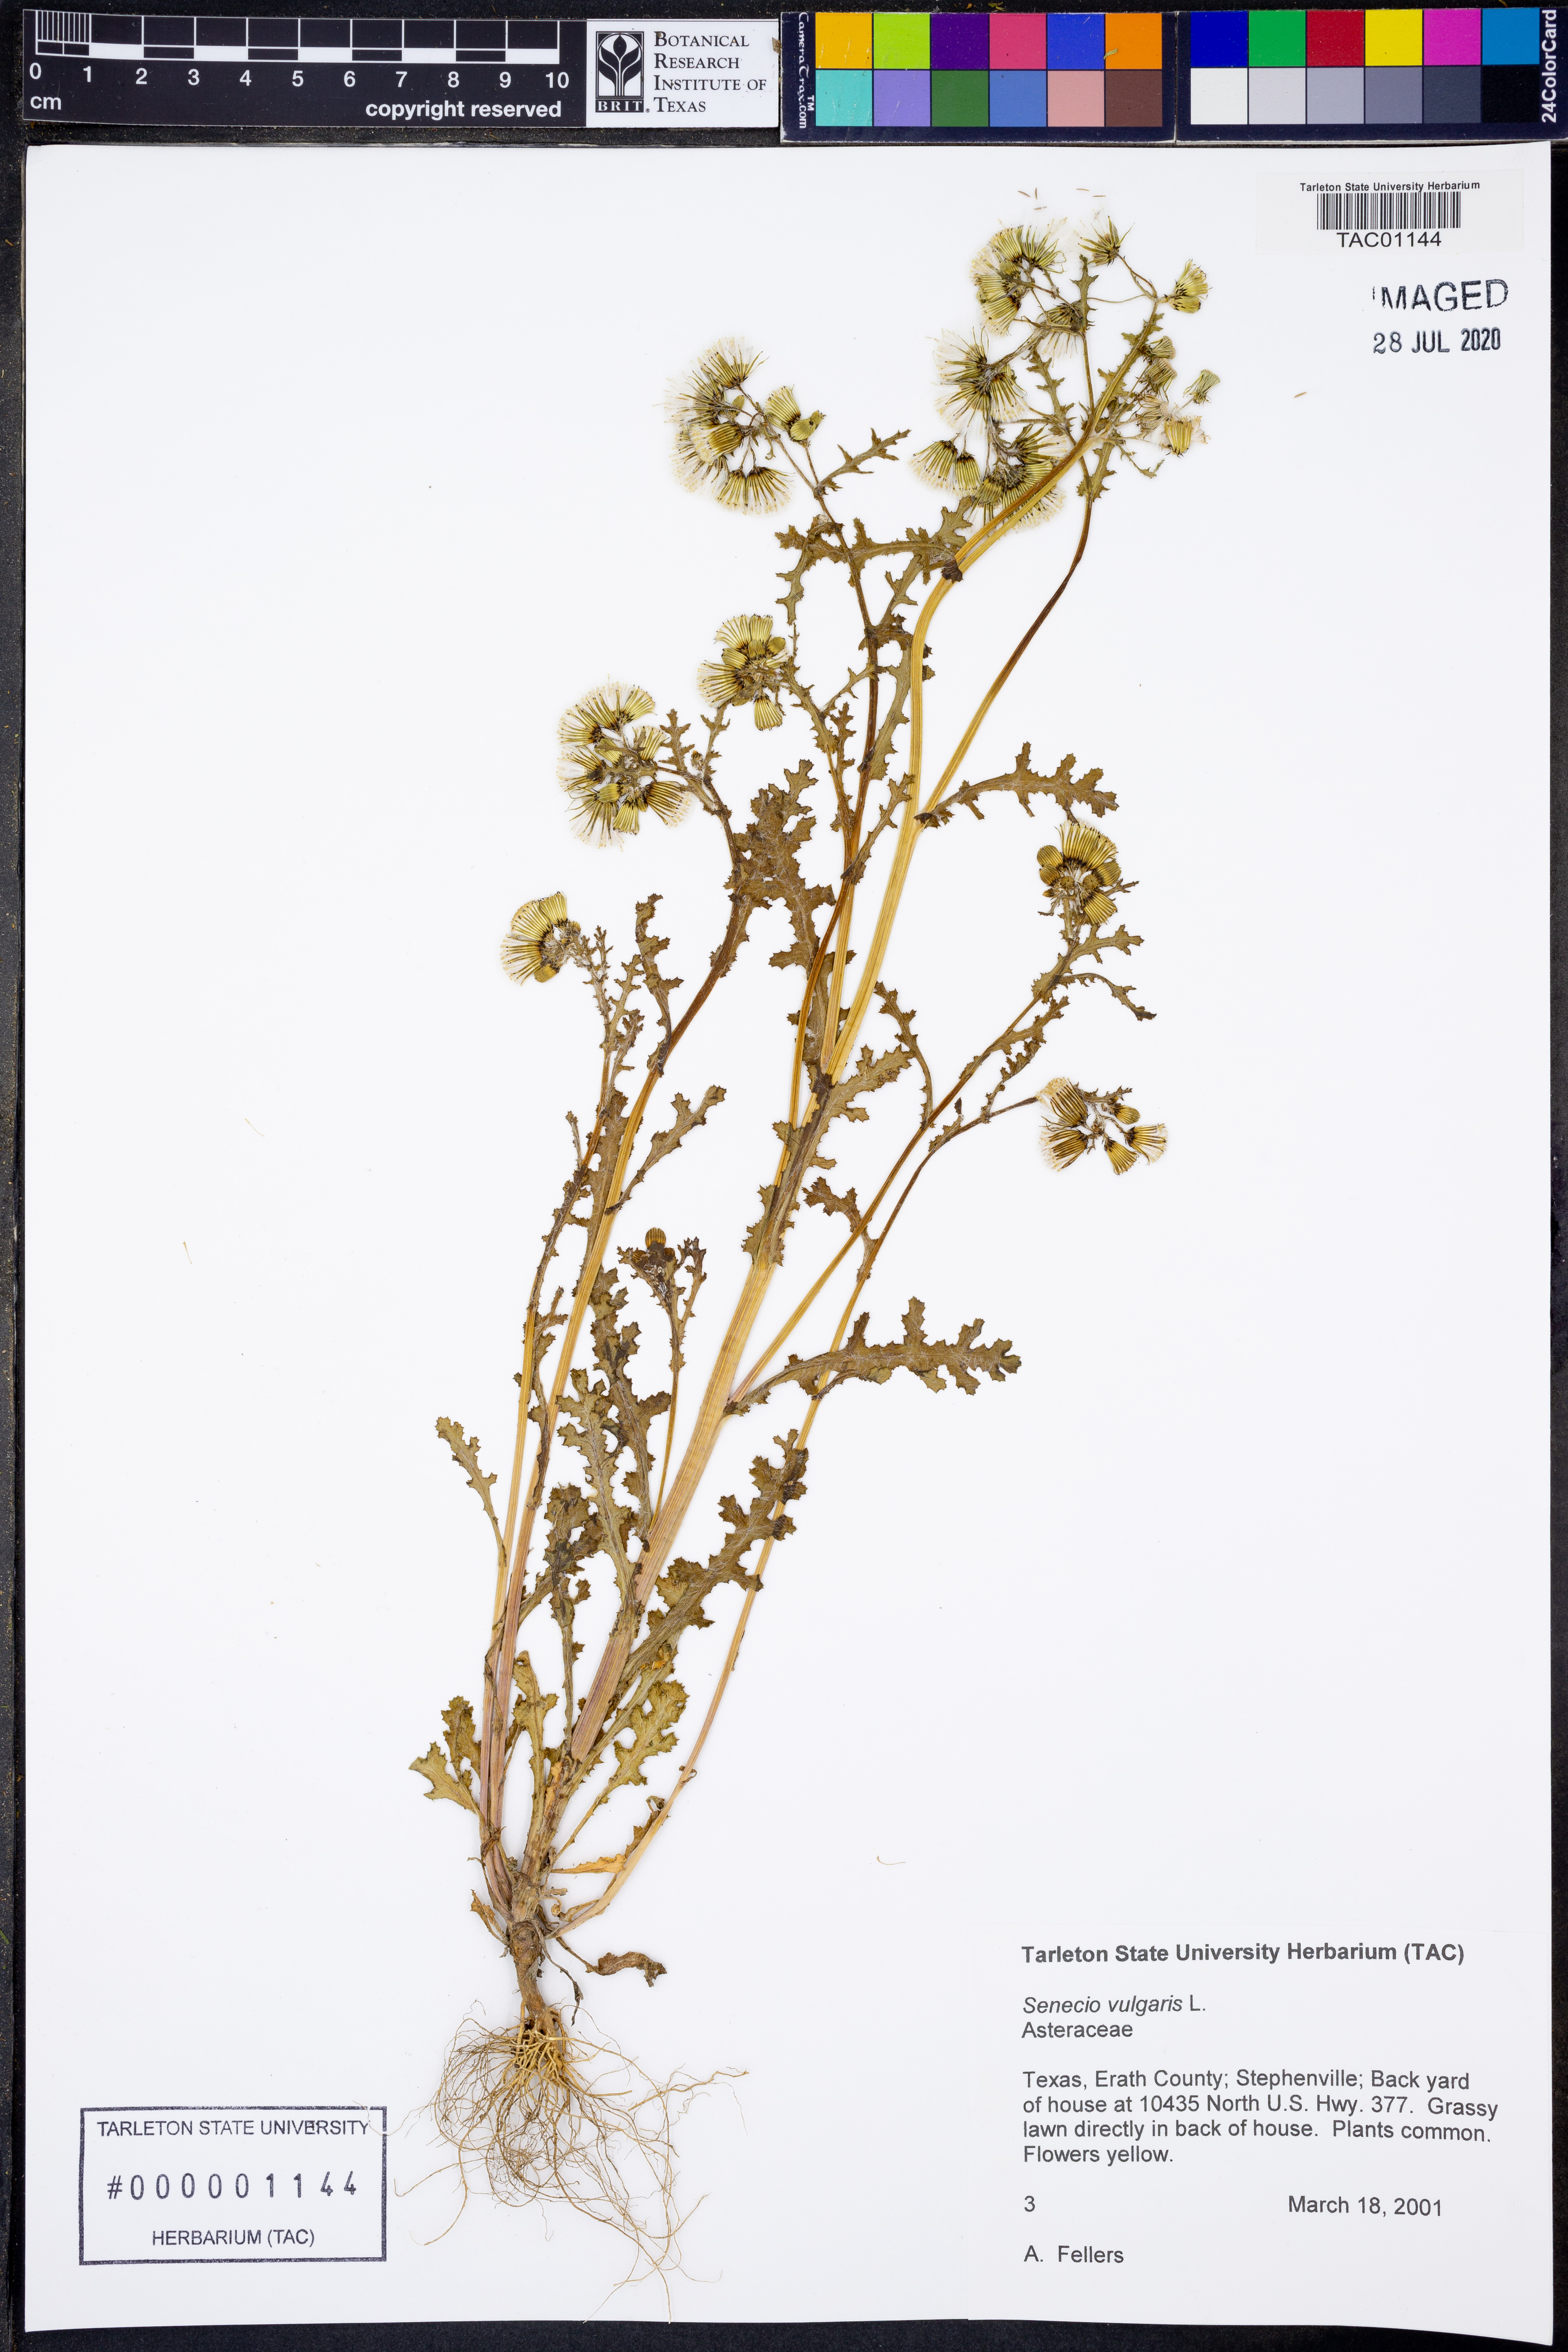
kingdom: Plantae
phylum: Tracheophyta
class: Magnoliopsida
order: Asterales
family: Asteraceae
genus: Senecio
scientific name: Senecio vulgaris
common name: Old-man-in-the-spring
